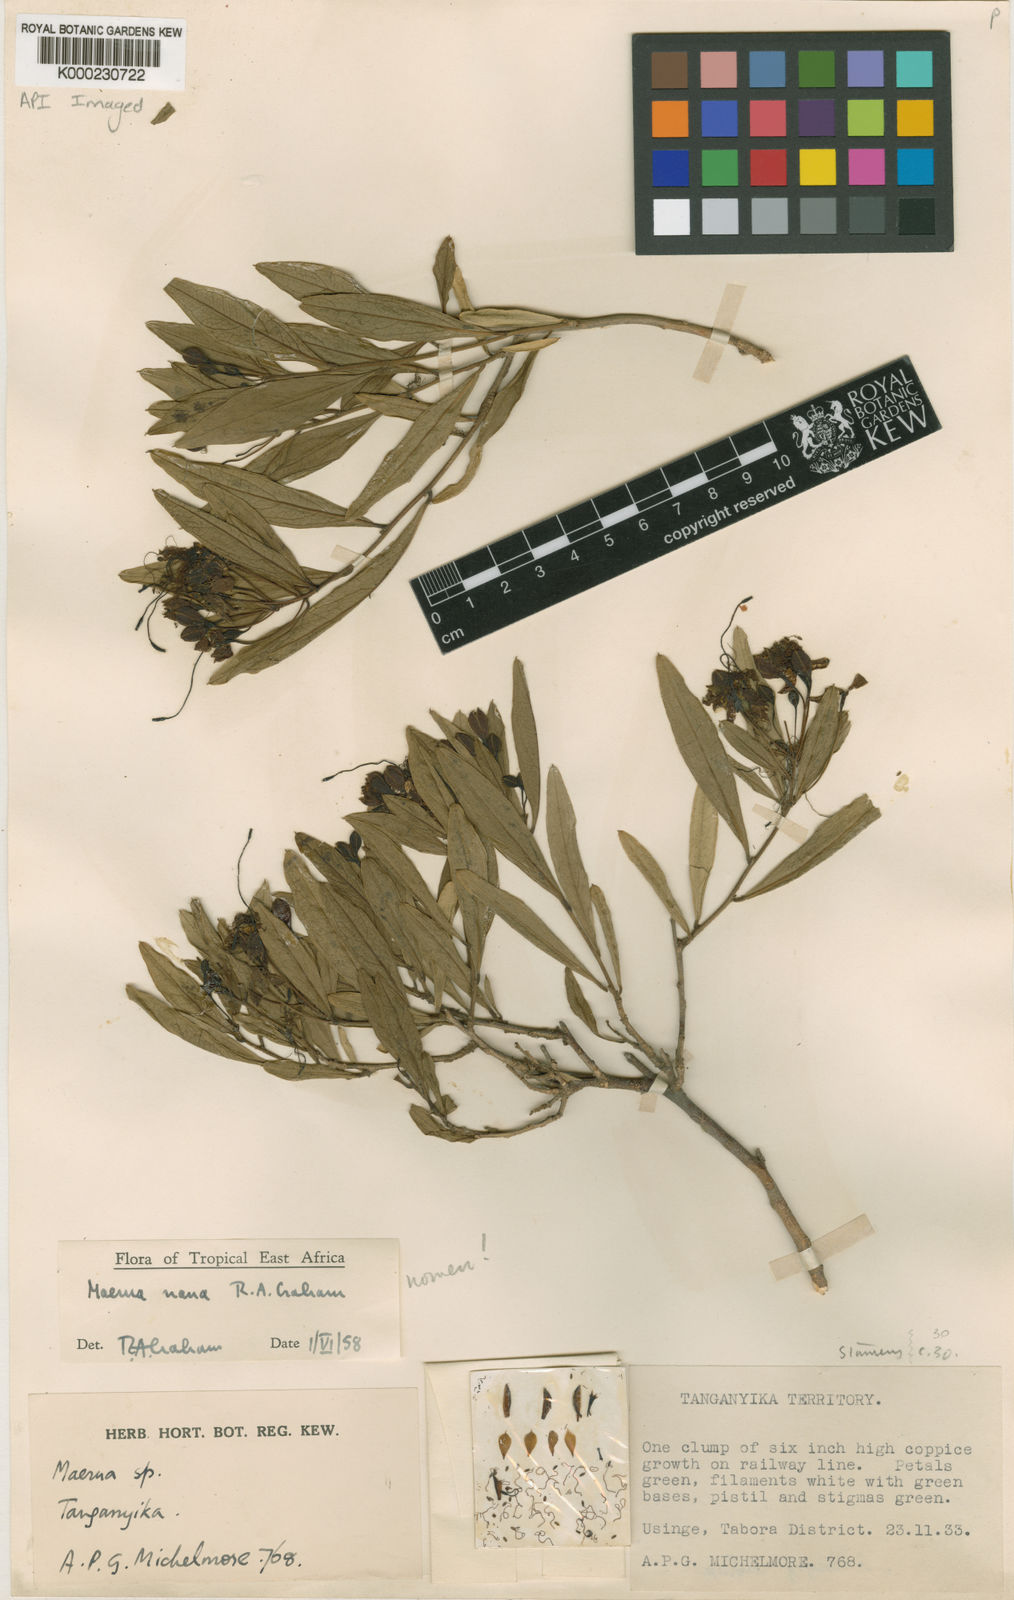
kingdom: Plantae
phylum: Tracheophyta
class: Magnoliopsida
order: Brassicales
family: Capparaceae
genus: Maerua
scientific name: Maerua
